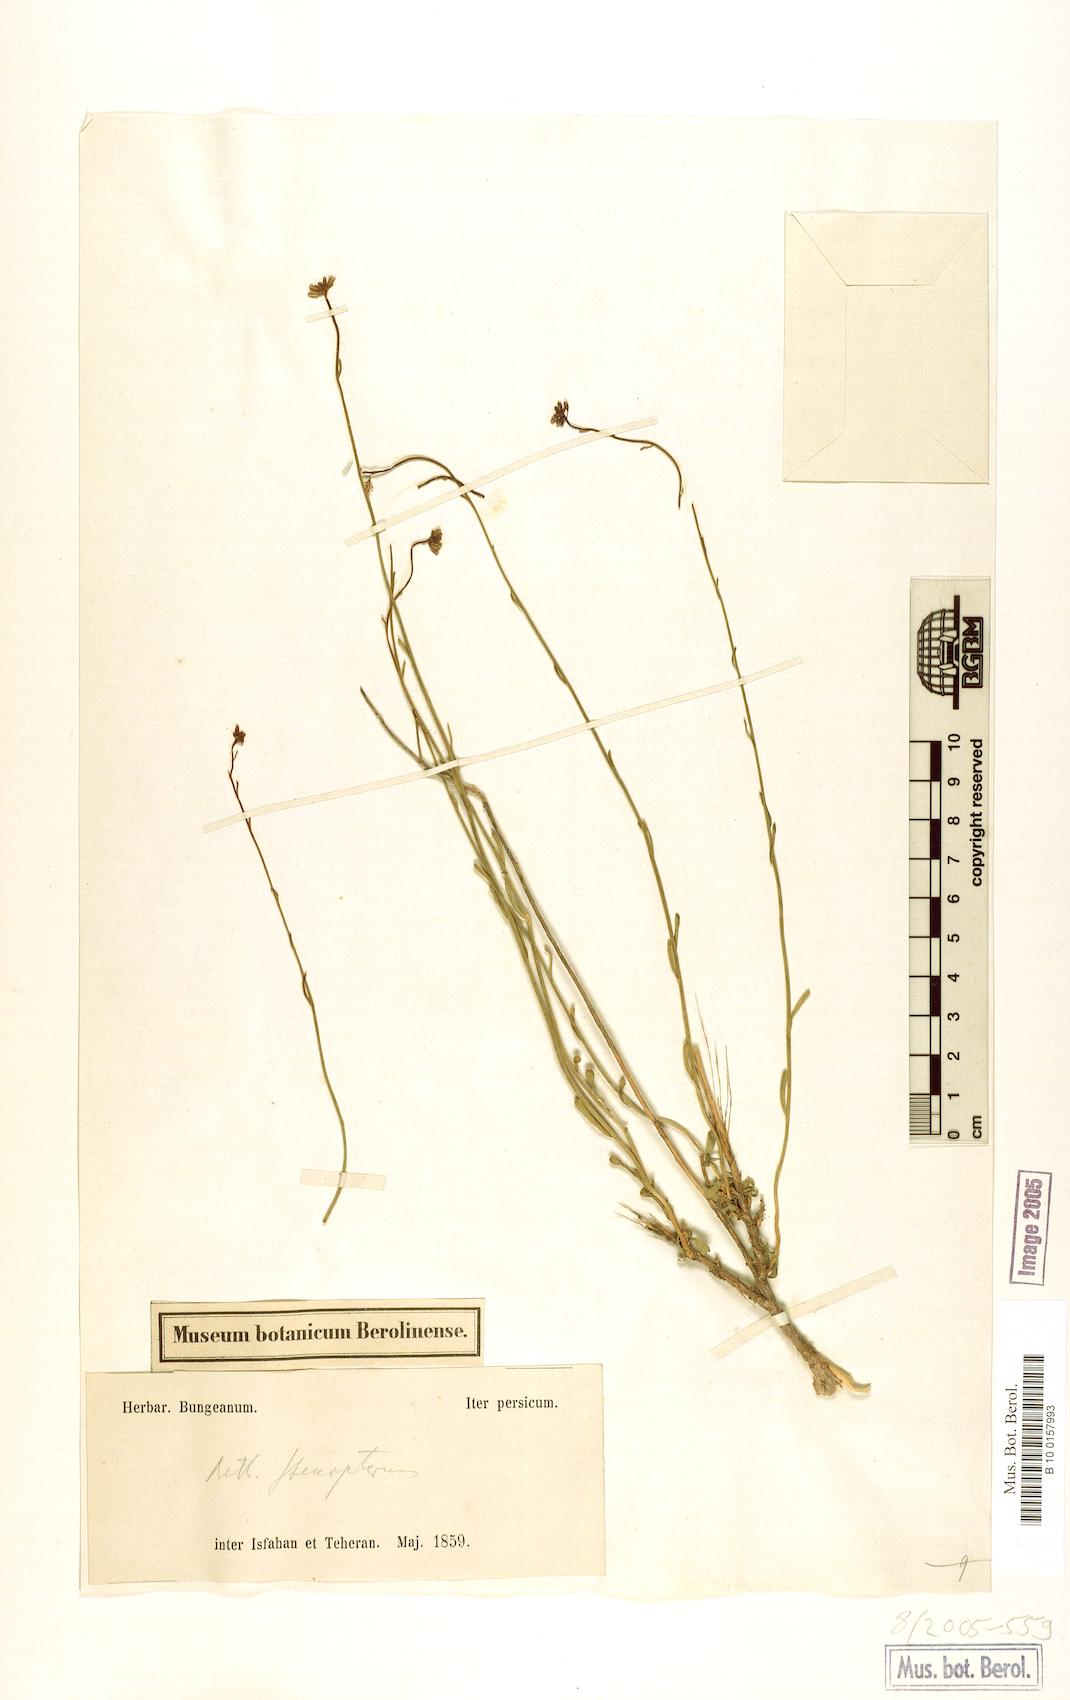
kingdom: Plantae
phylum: Tracheophyta
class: Magnoliopsida
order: Brassicales
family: Brassicaceae
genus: Aethionema
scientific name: Aethionema stenopterum
